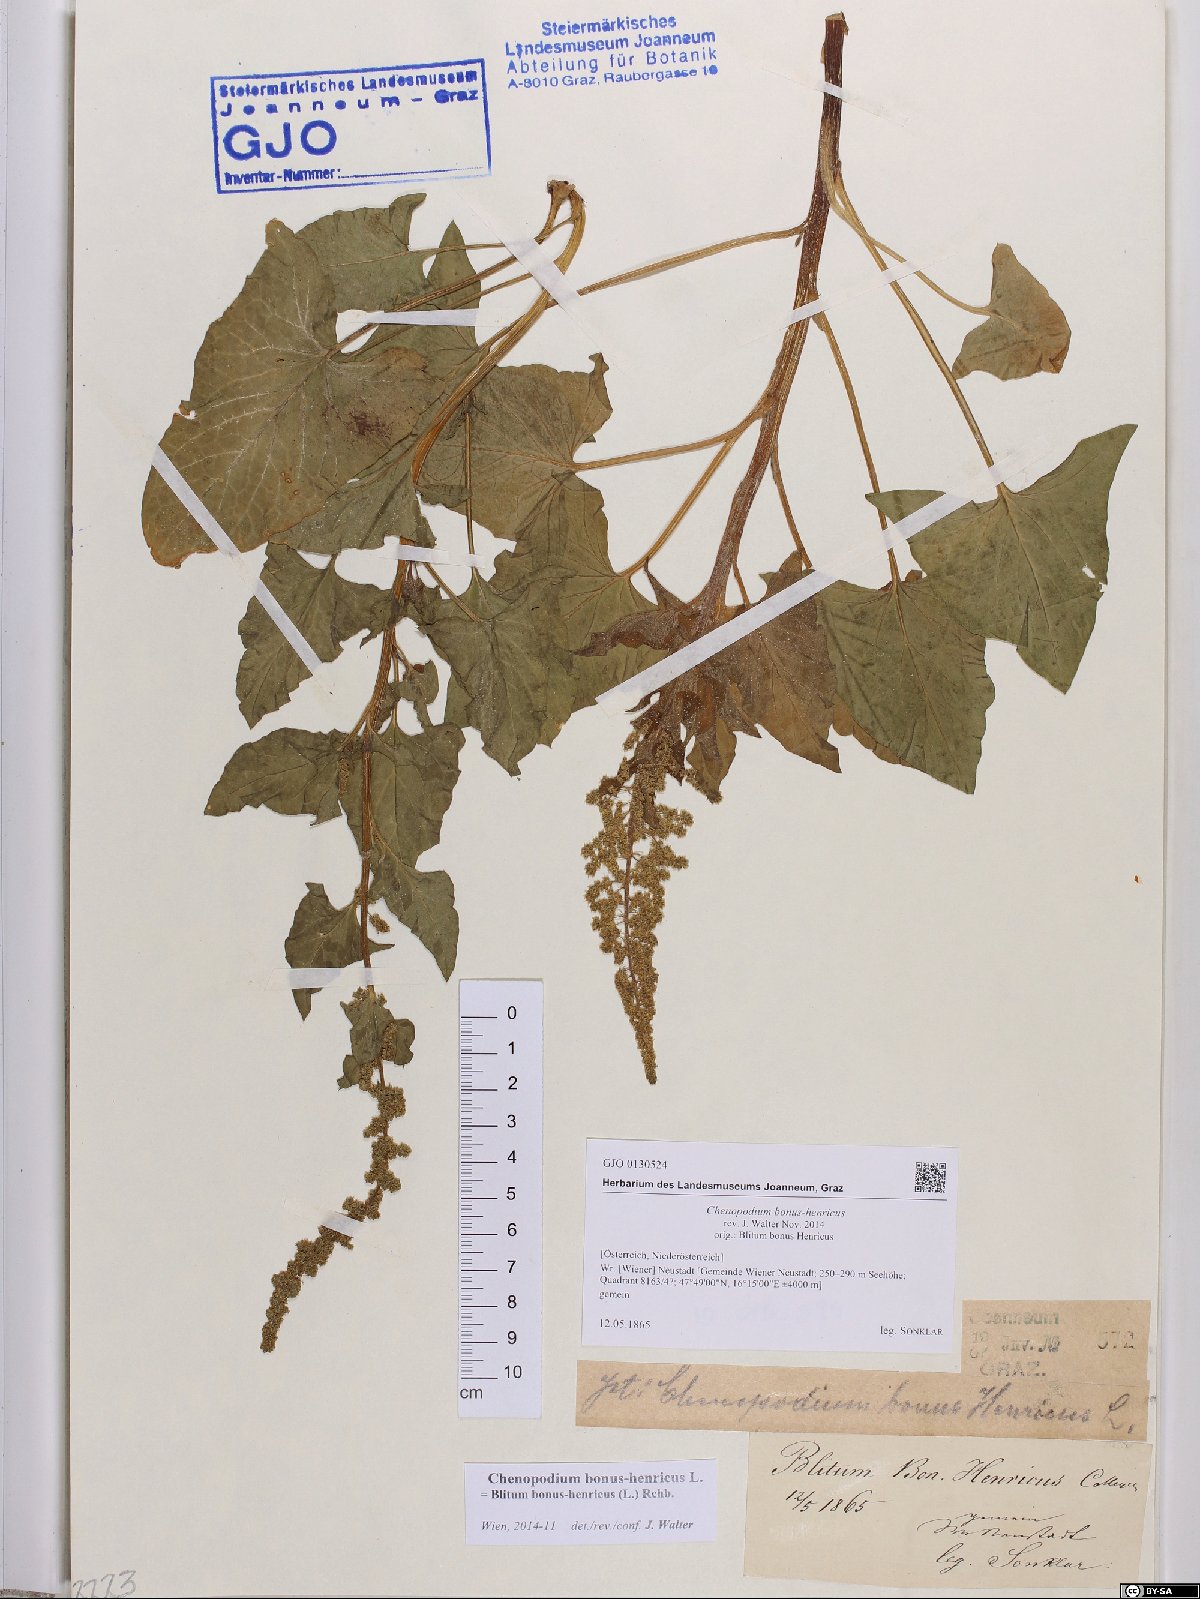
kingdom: Plantae
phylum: Tracheophyta
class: Magnoliopsida
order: Caryophyllales
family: Amaranthaceae
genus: Blitum
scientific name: Blitum bonus-henricus
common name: Good king henry
